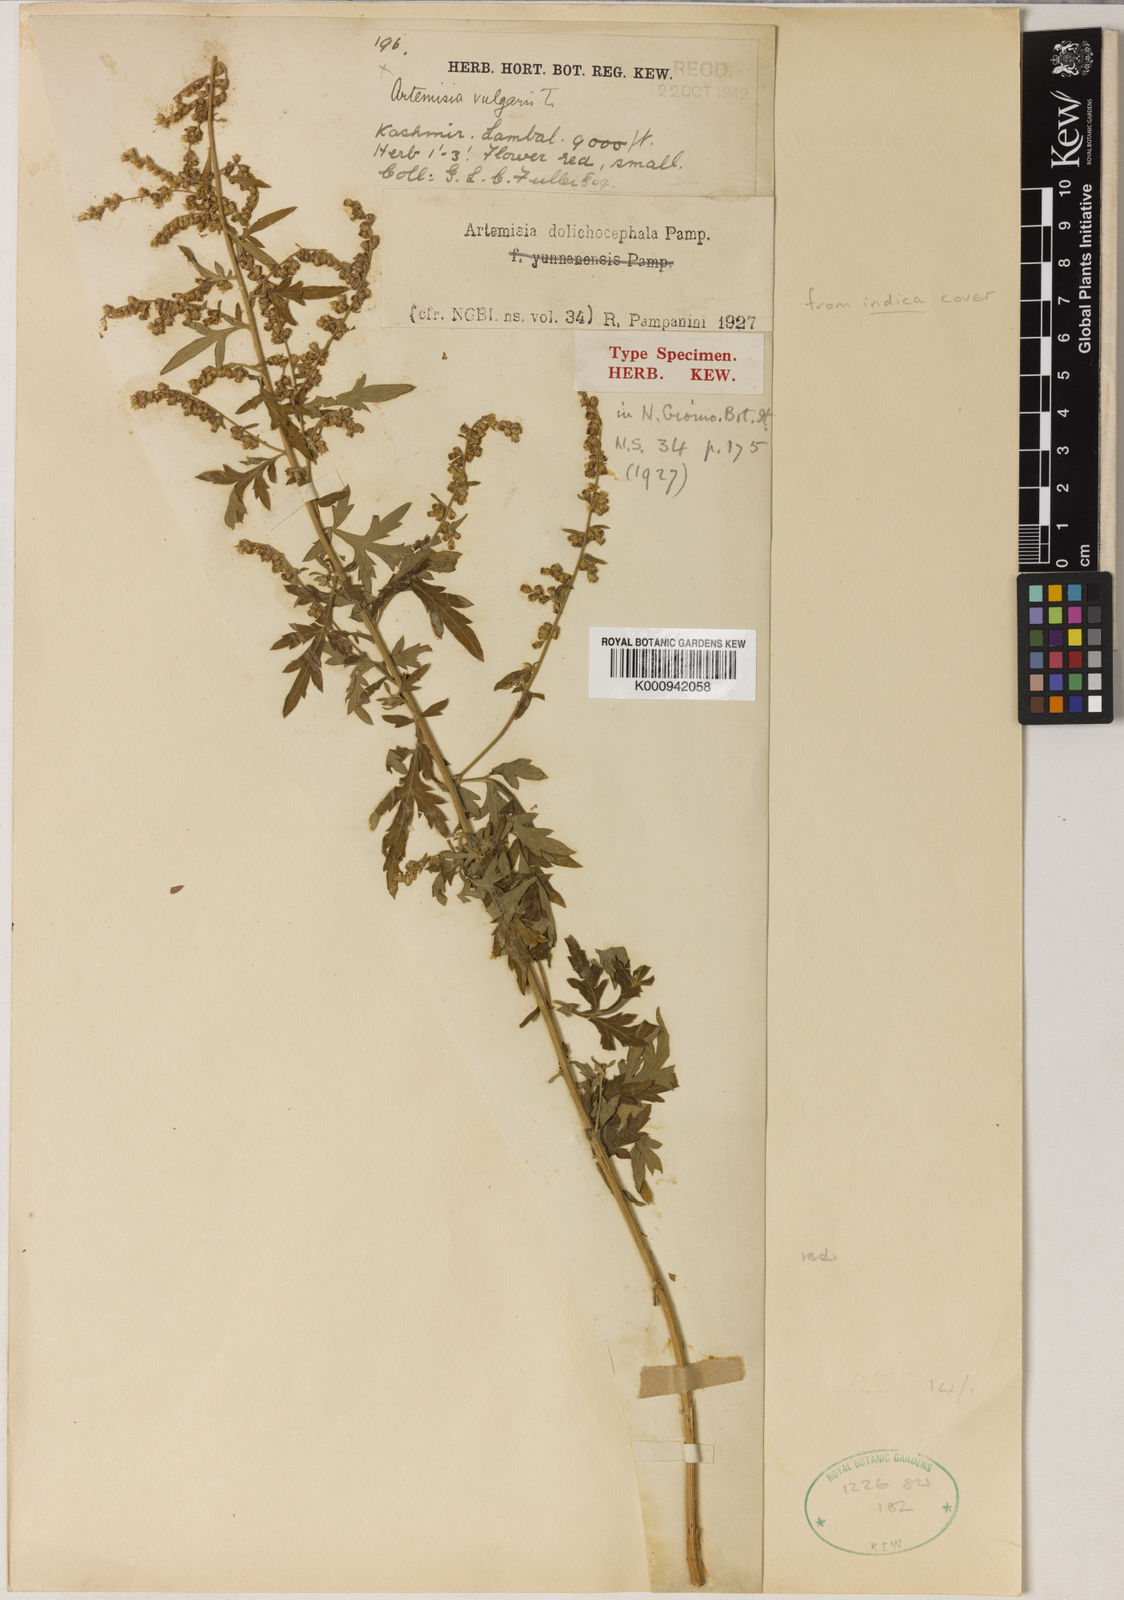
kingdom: Plantae
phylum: Tracheophyta
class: Magnoliopsida
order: Asterales
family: Asteraceae
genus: Artemisia
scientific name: Artemisia indica
